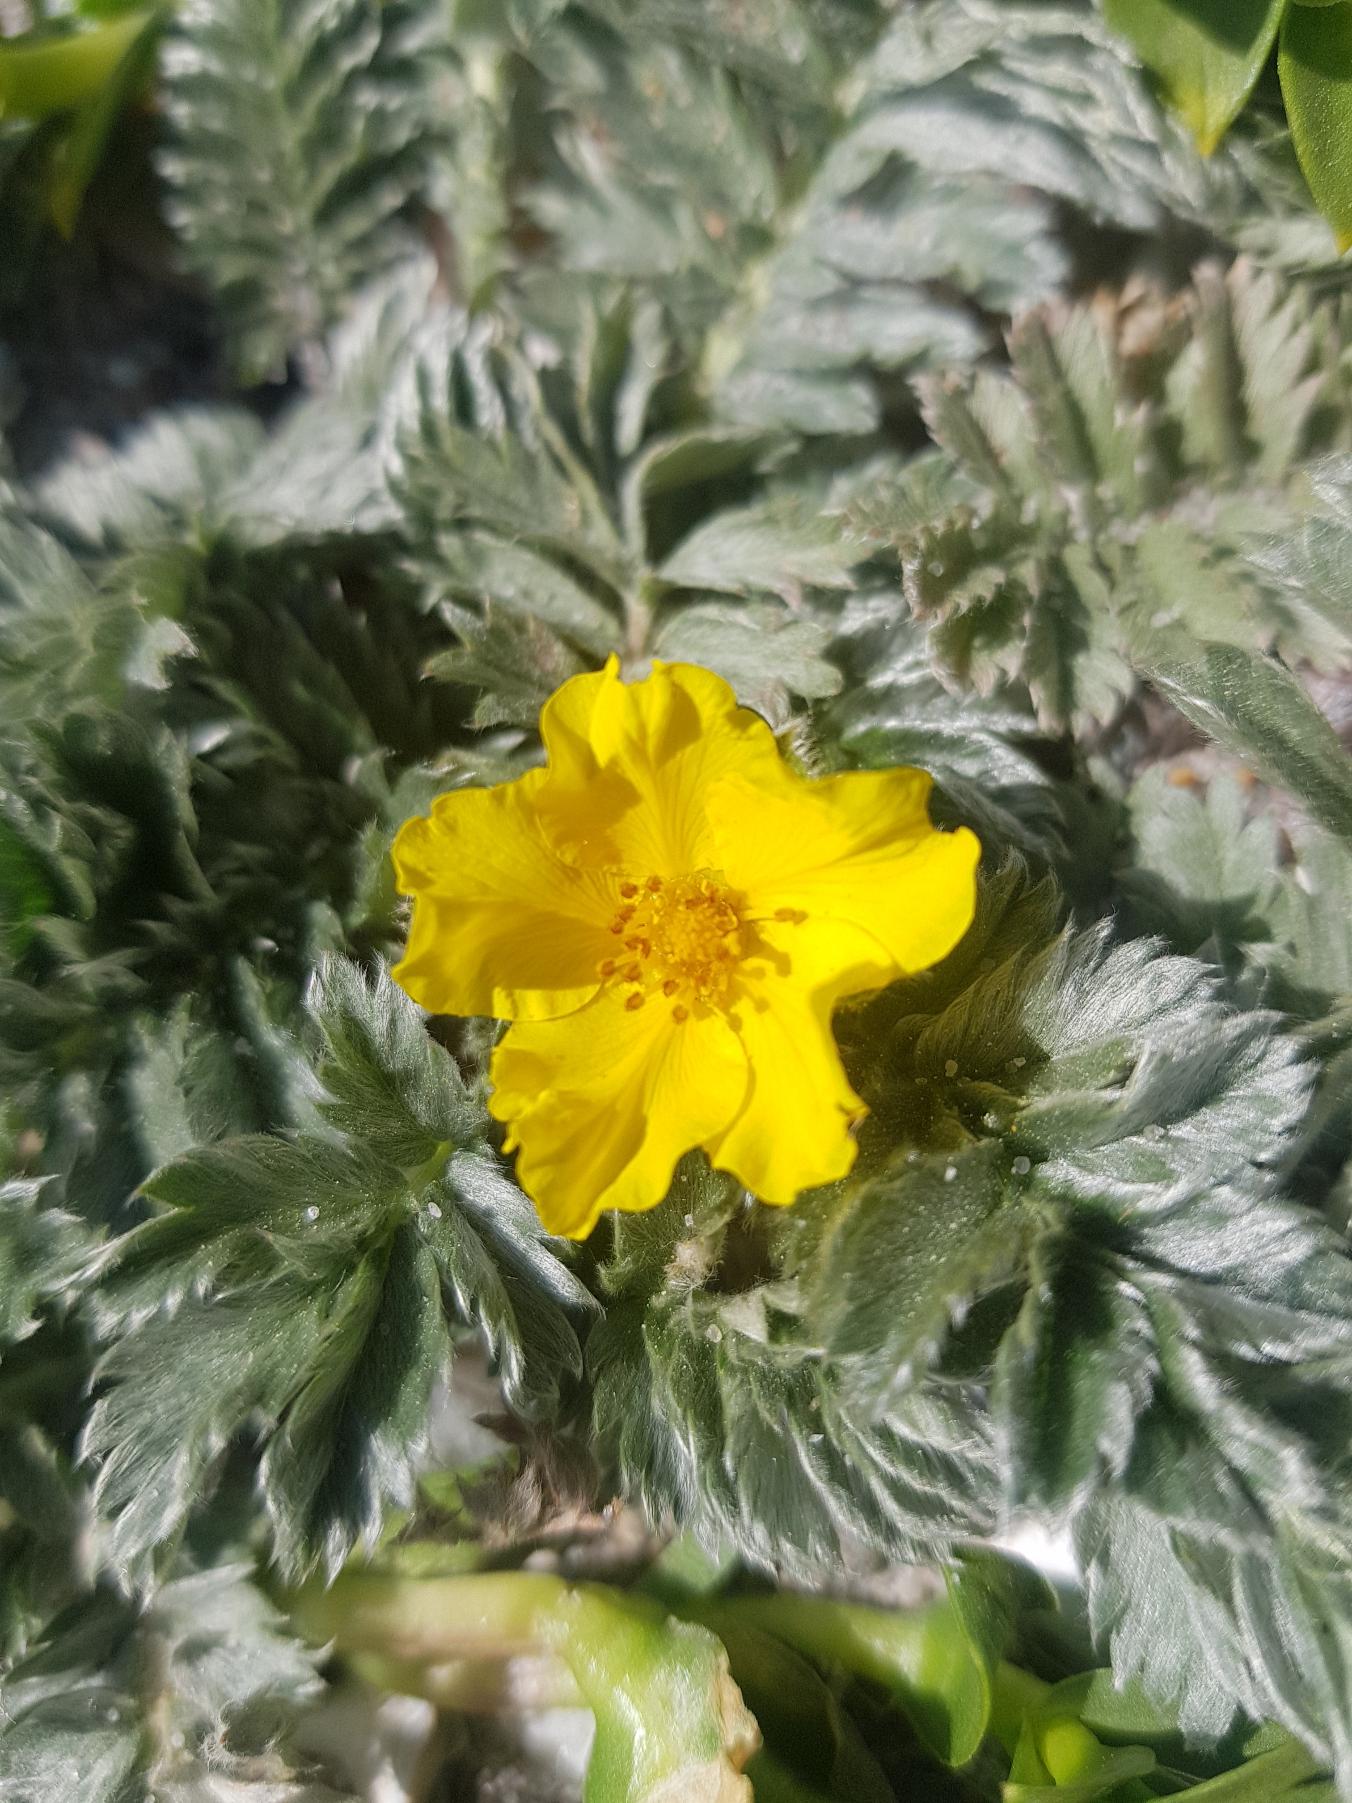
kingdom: Plantae
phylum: Tracheophyta
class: Magnoliopsida
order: Rosales
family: Rosaceae
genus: Argentina
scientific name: Argentina anserina
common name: Gåsepotentil
